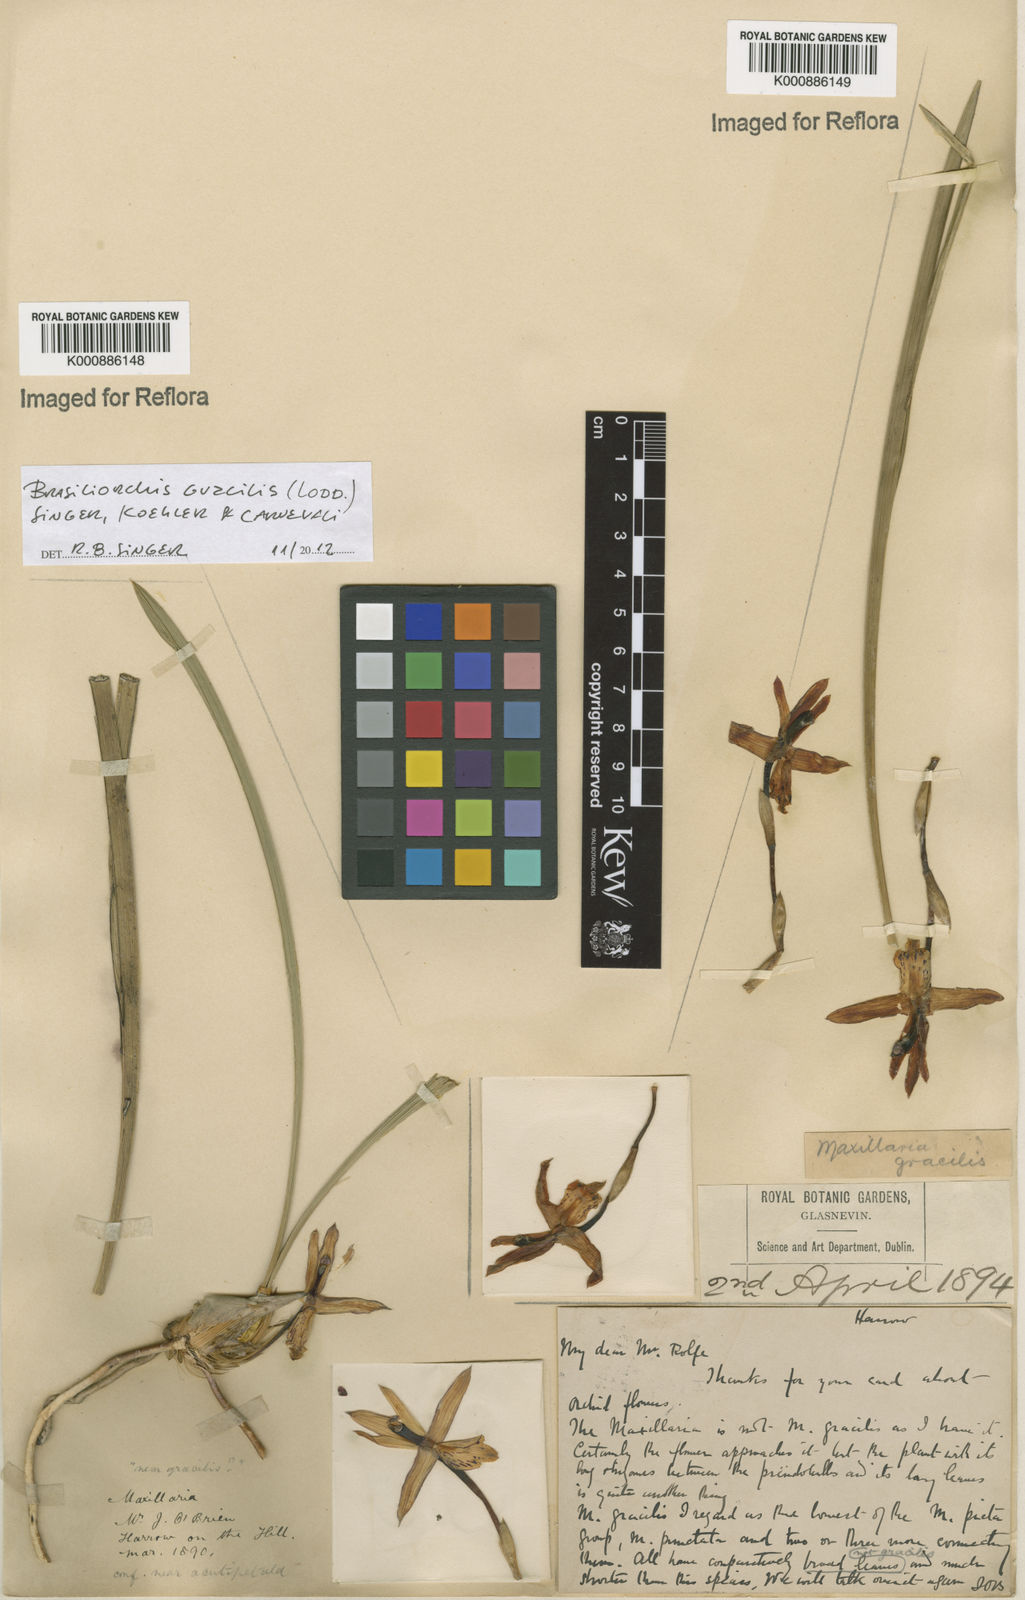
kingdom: Plantae
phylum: Tracheophyta
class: Liliopsida
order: Asparagales
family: Orchidaceae
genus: Maxillaria
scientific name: Maxillaria
